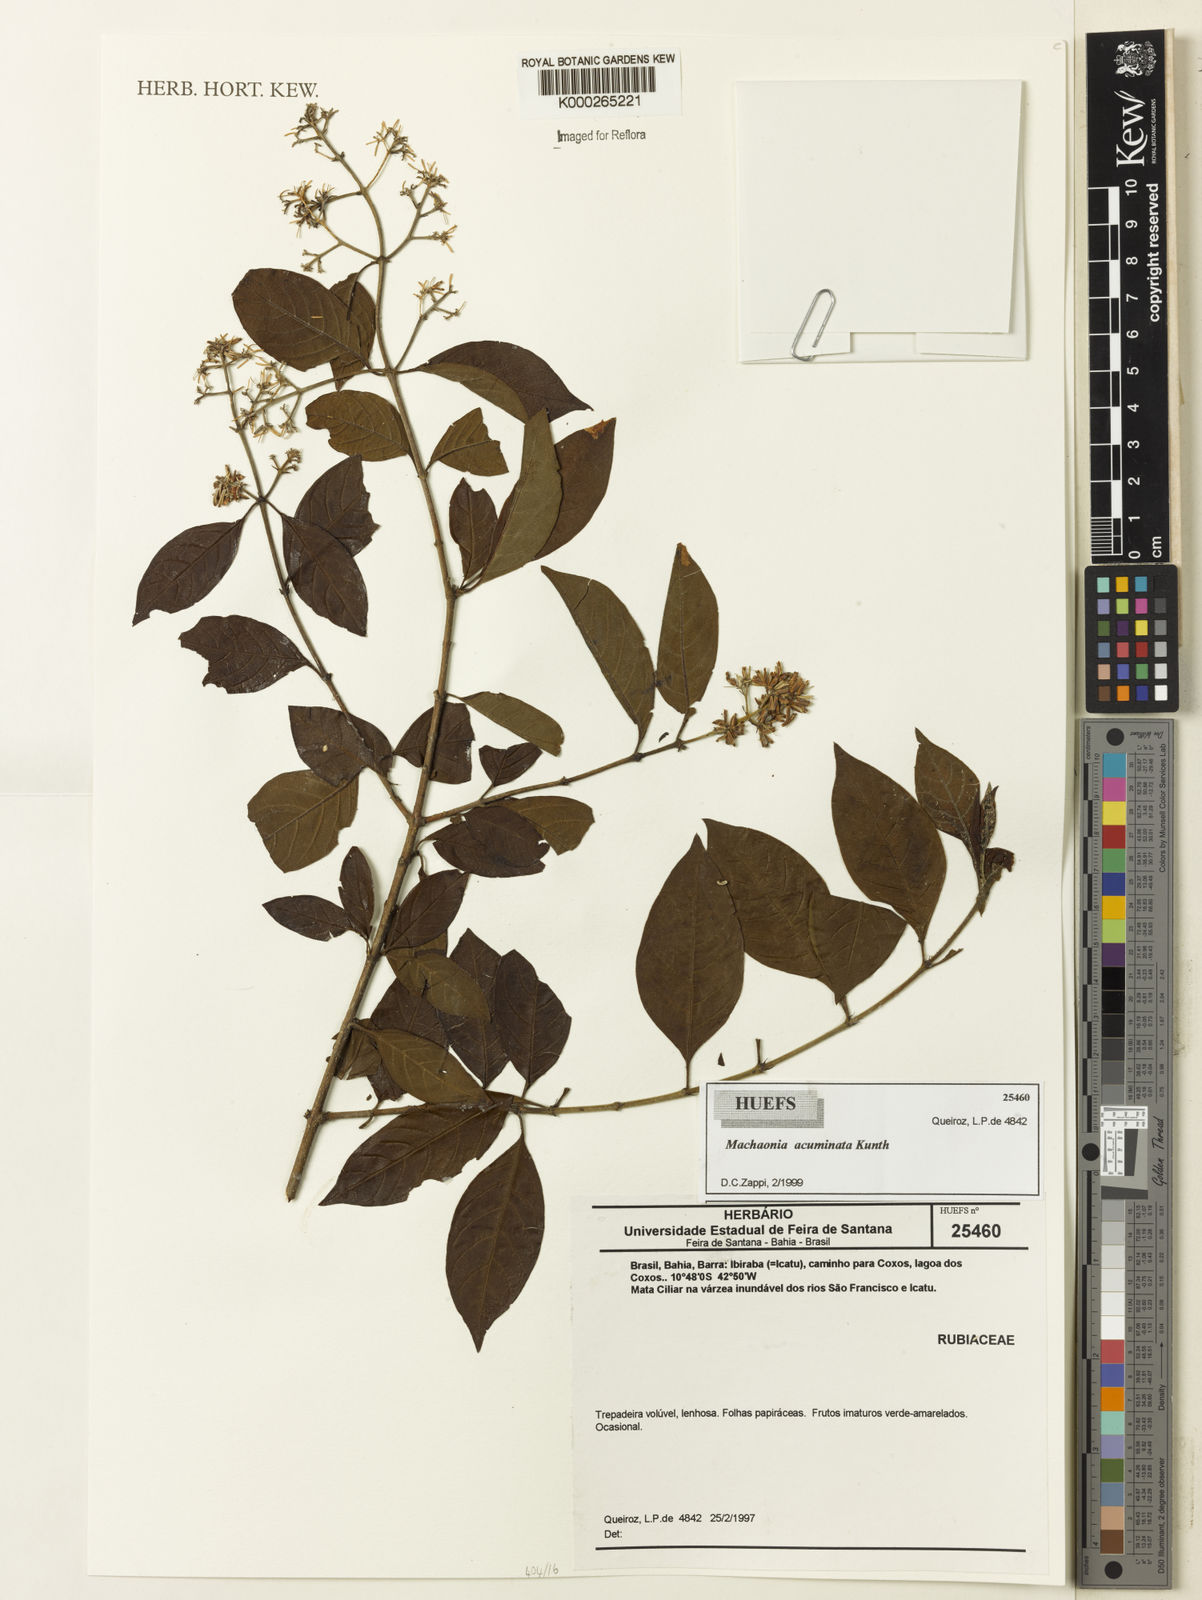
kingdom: Plantae
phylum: Tracheophyta
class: Magnoliopsida
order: Gentianales
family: Rubiaceae
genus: Machaonia
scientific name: Machaonia acuminata
